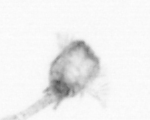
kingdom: Animalia
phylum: Arthropoda
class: Copepoda
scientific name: Copepoda
